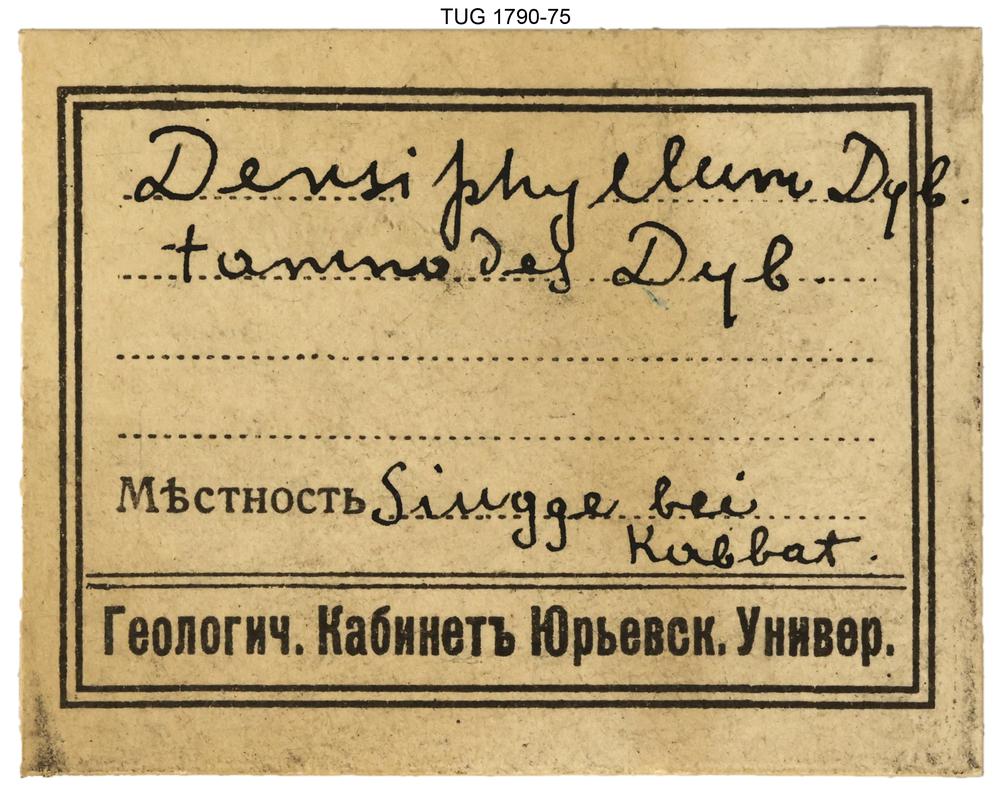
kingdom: Animalia
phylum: Cnidaria
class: Anthozoa
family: Streptelasmatidae
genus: Densiphyllum
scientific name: Densiphyllum
